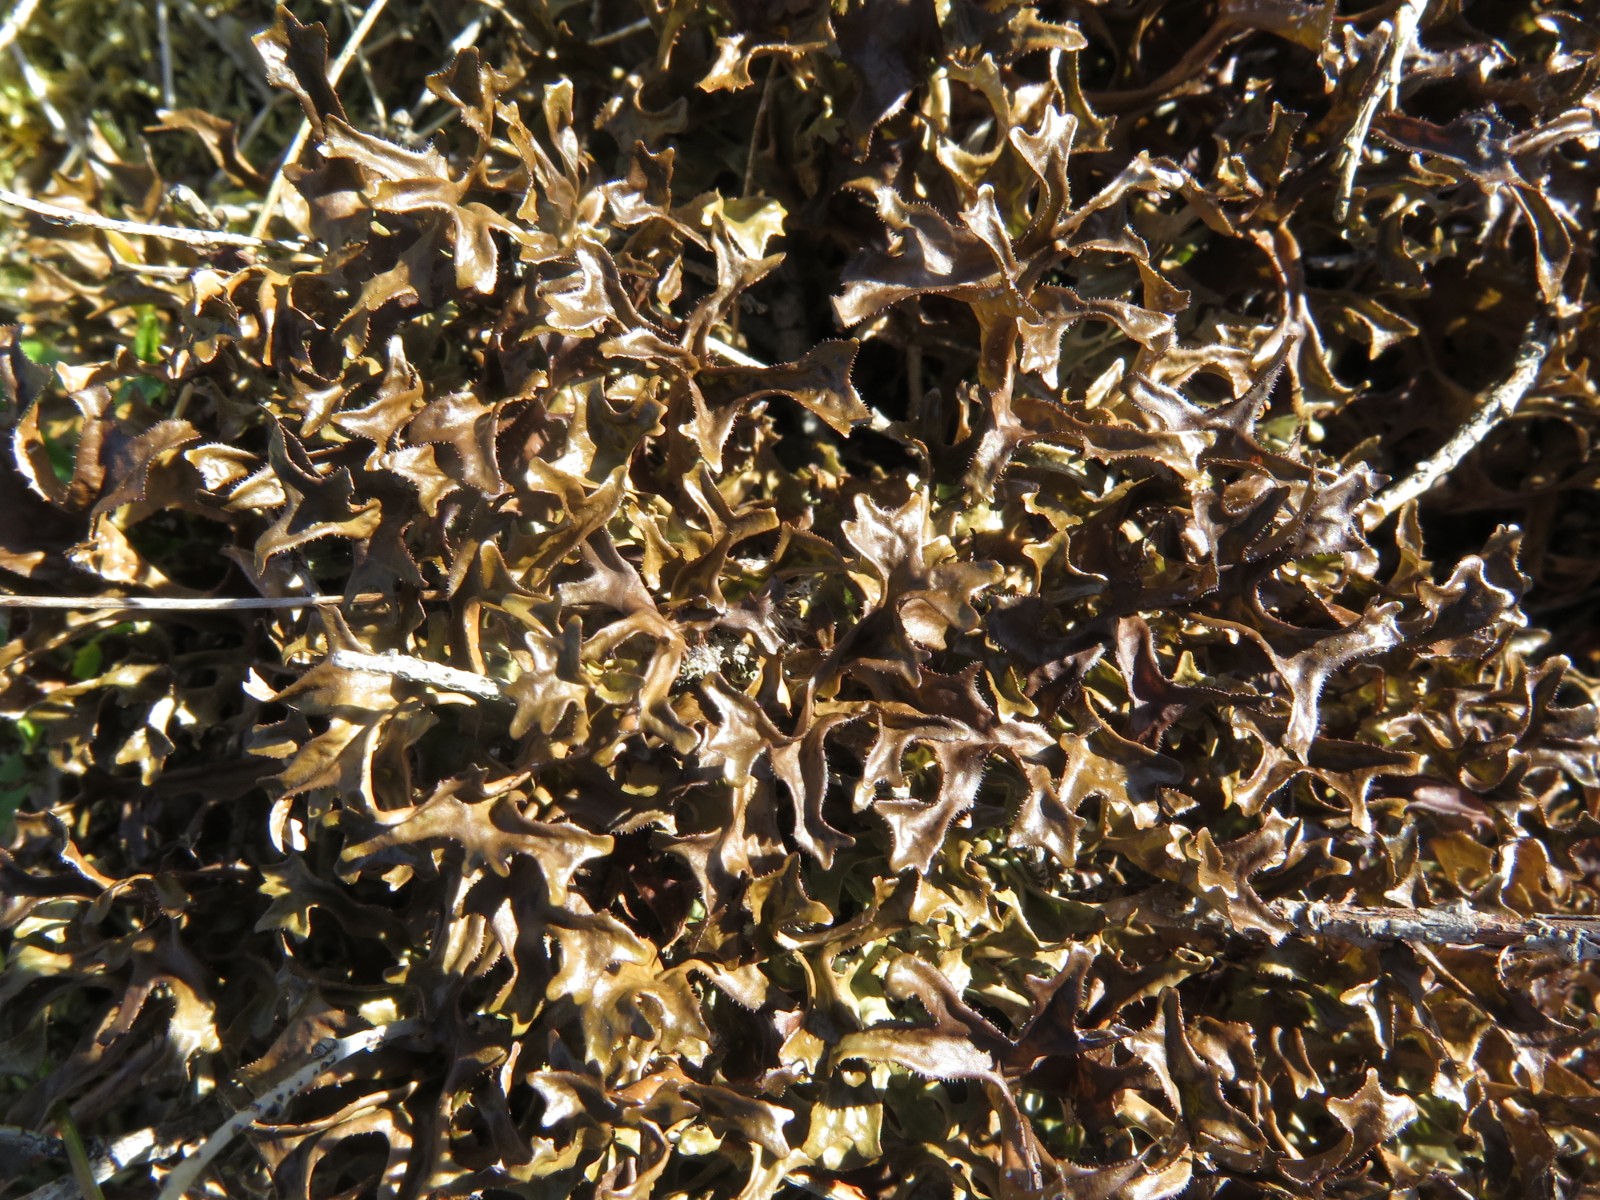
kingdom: Fungi
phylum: Ascomycota
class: Lecanoromycetes
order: Lecanorales
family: Parmeliaceae
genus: Cetraria
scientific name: Cetraria islandica
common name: islandsk kruslav
